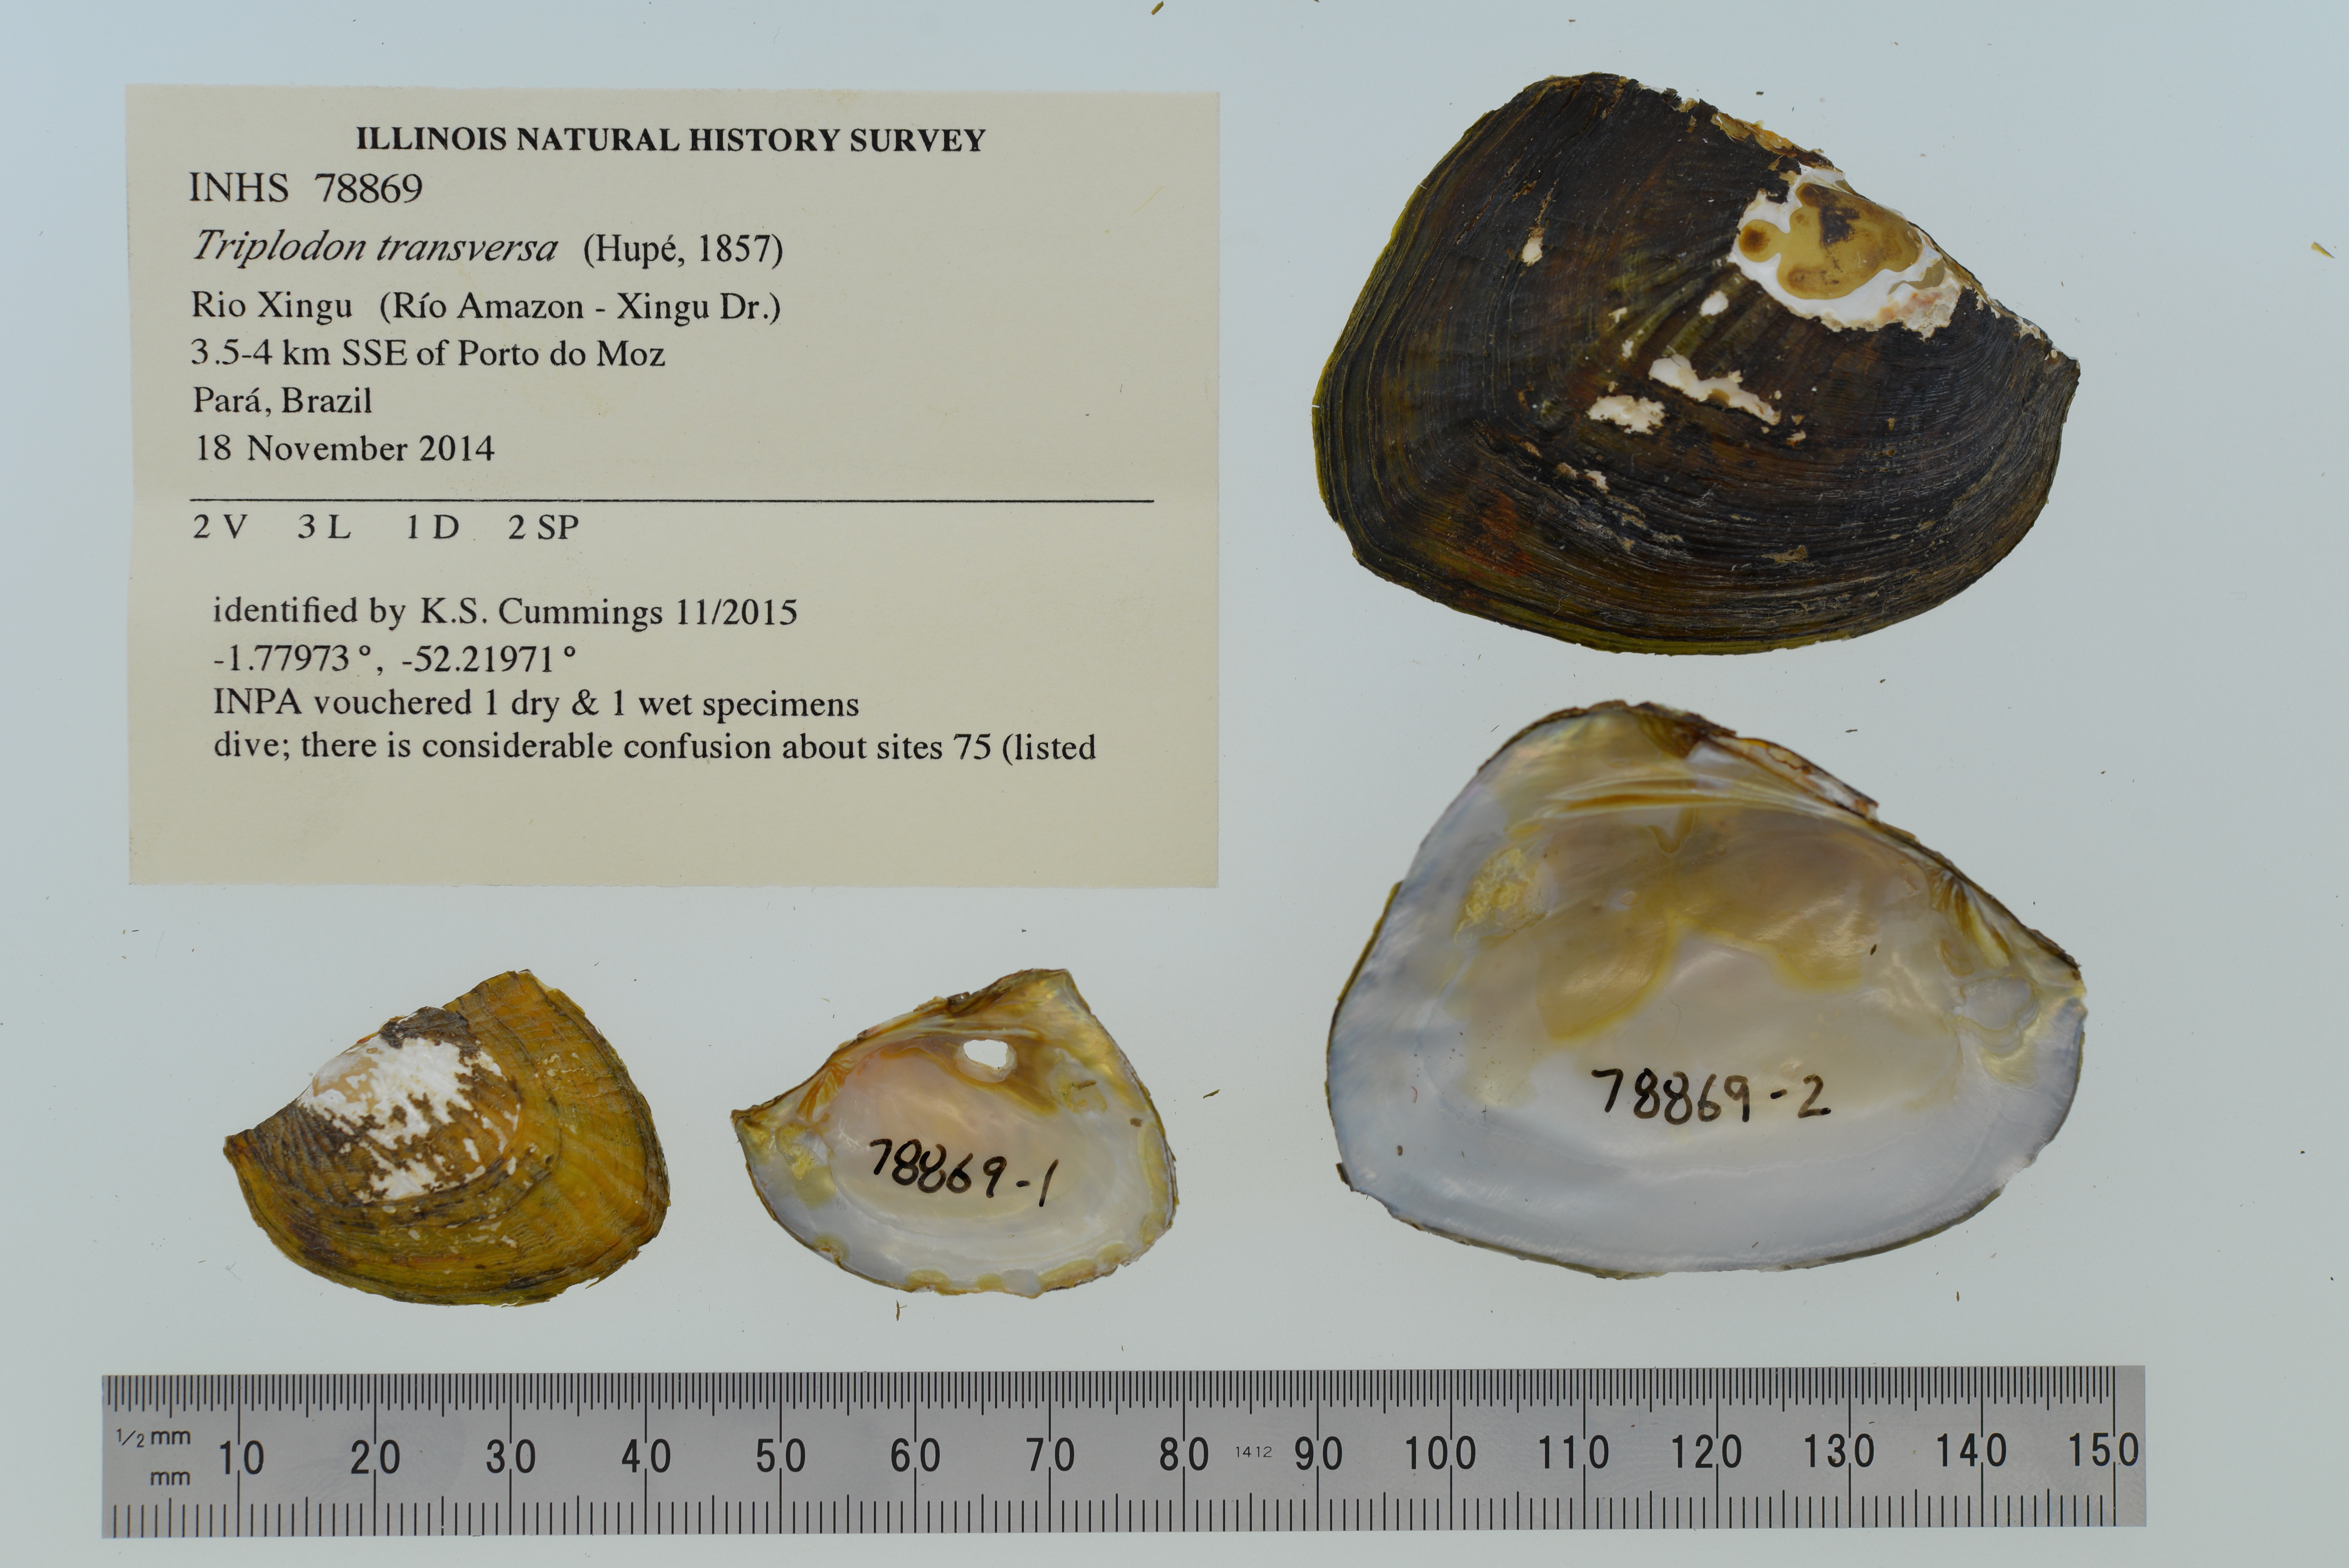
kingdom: Animalia
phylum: Mollusca
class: Bivalvia
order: Unionida
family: Hyriidae
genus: Triplodon
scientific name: Triplodon
